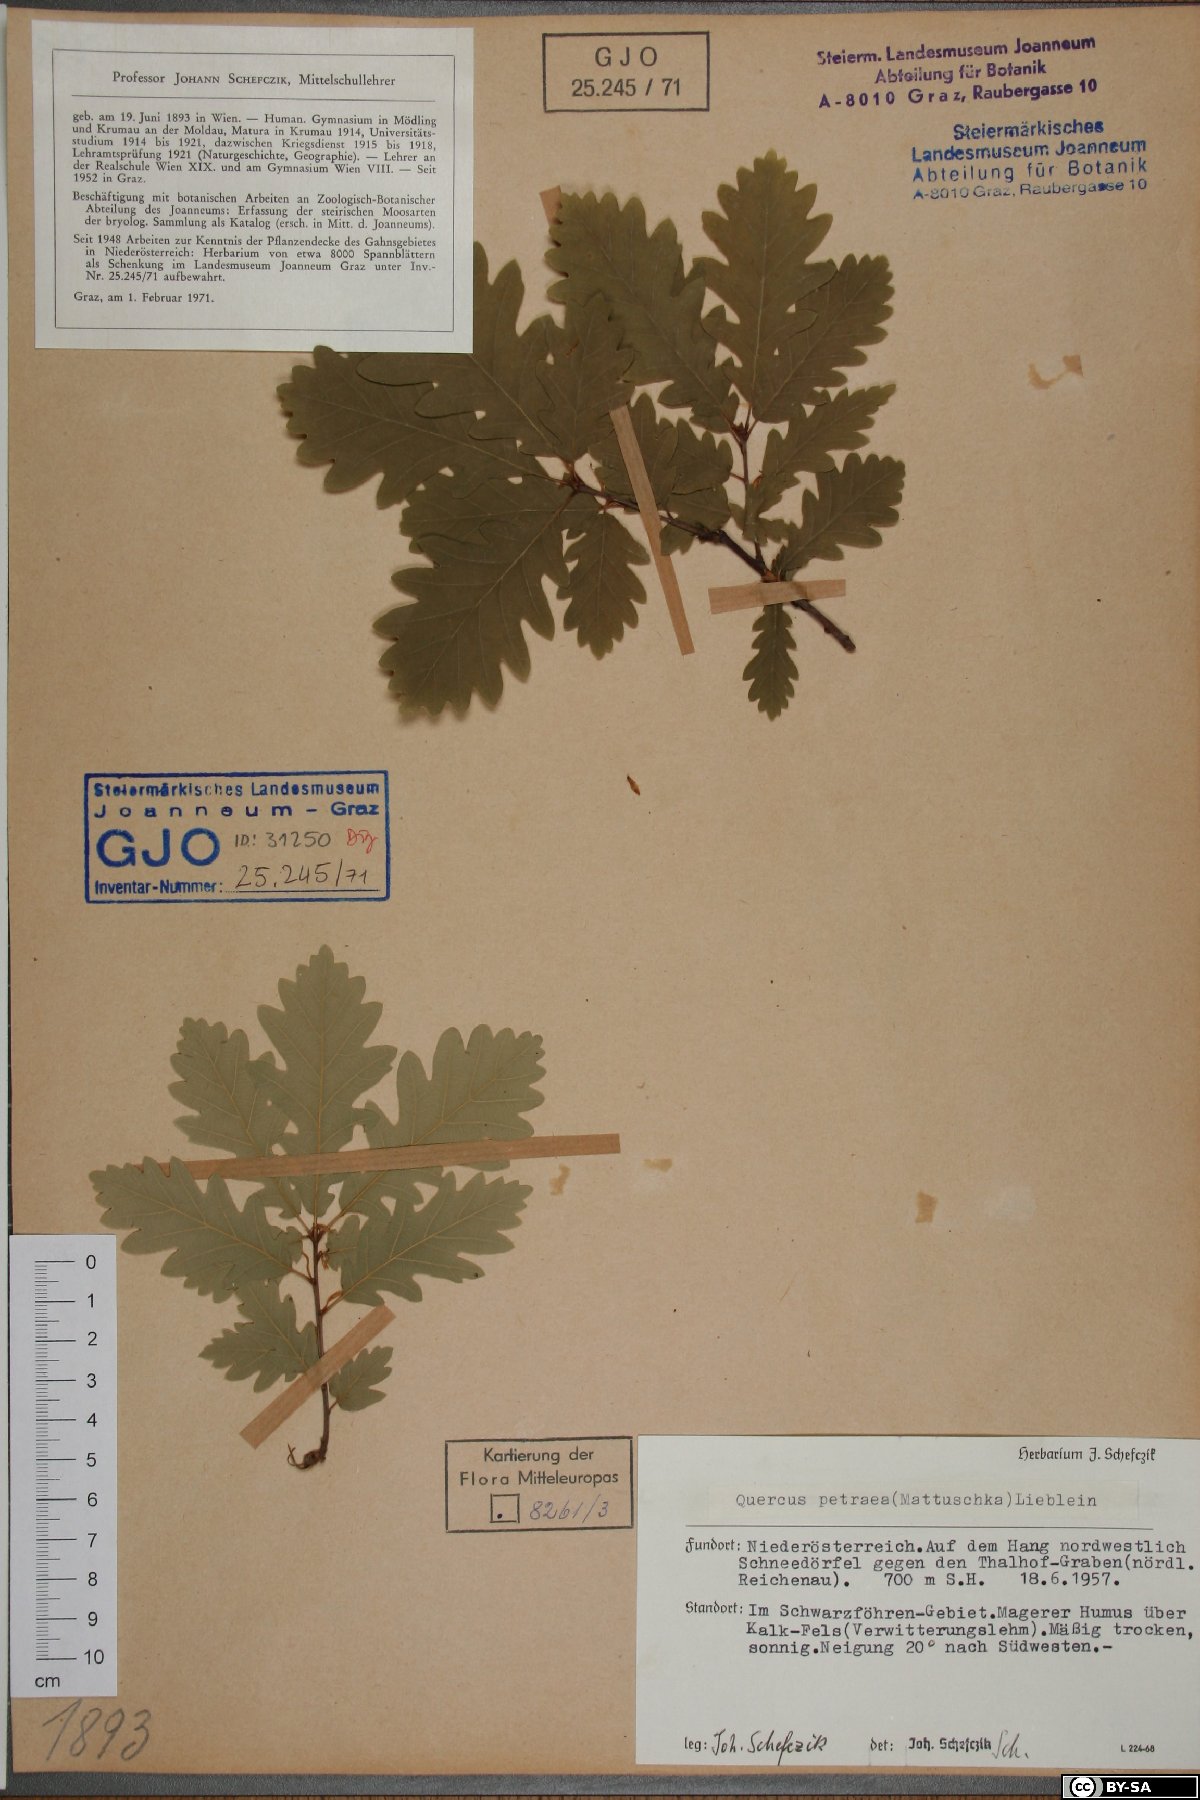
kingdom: Plantae
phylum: Tracheophyta
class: Magnoliopsida
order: Fagales
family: Fagaceae
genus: Quercus
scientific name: Quercus petraea
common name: Sessile oak
